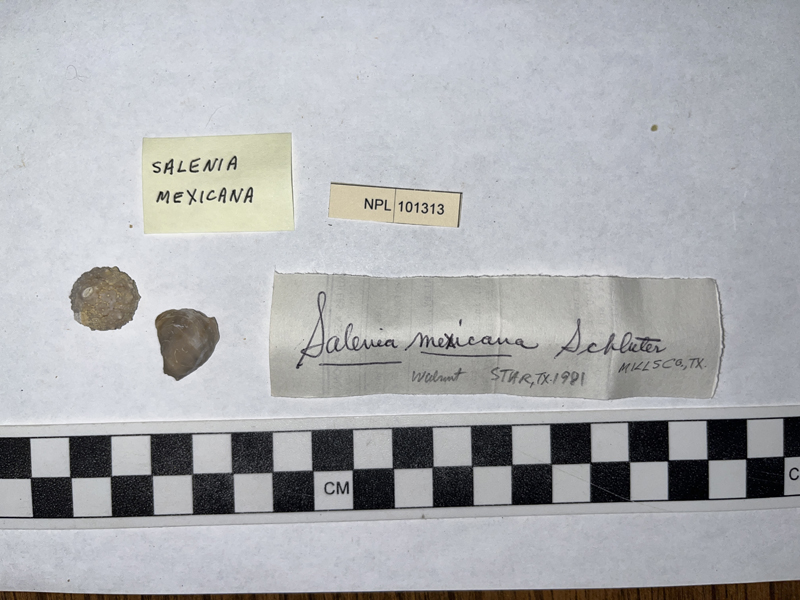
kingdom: Animalia
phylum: Echinodermata
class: Echinoidea
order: Salenioida
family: Saleniidae
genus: Salenia
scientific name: Salenia mexicana
